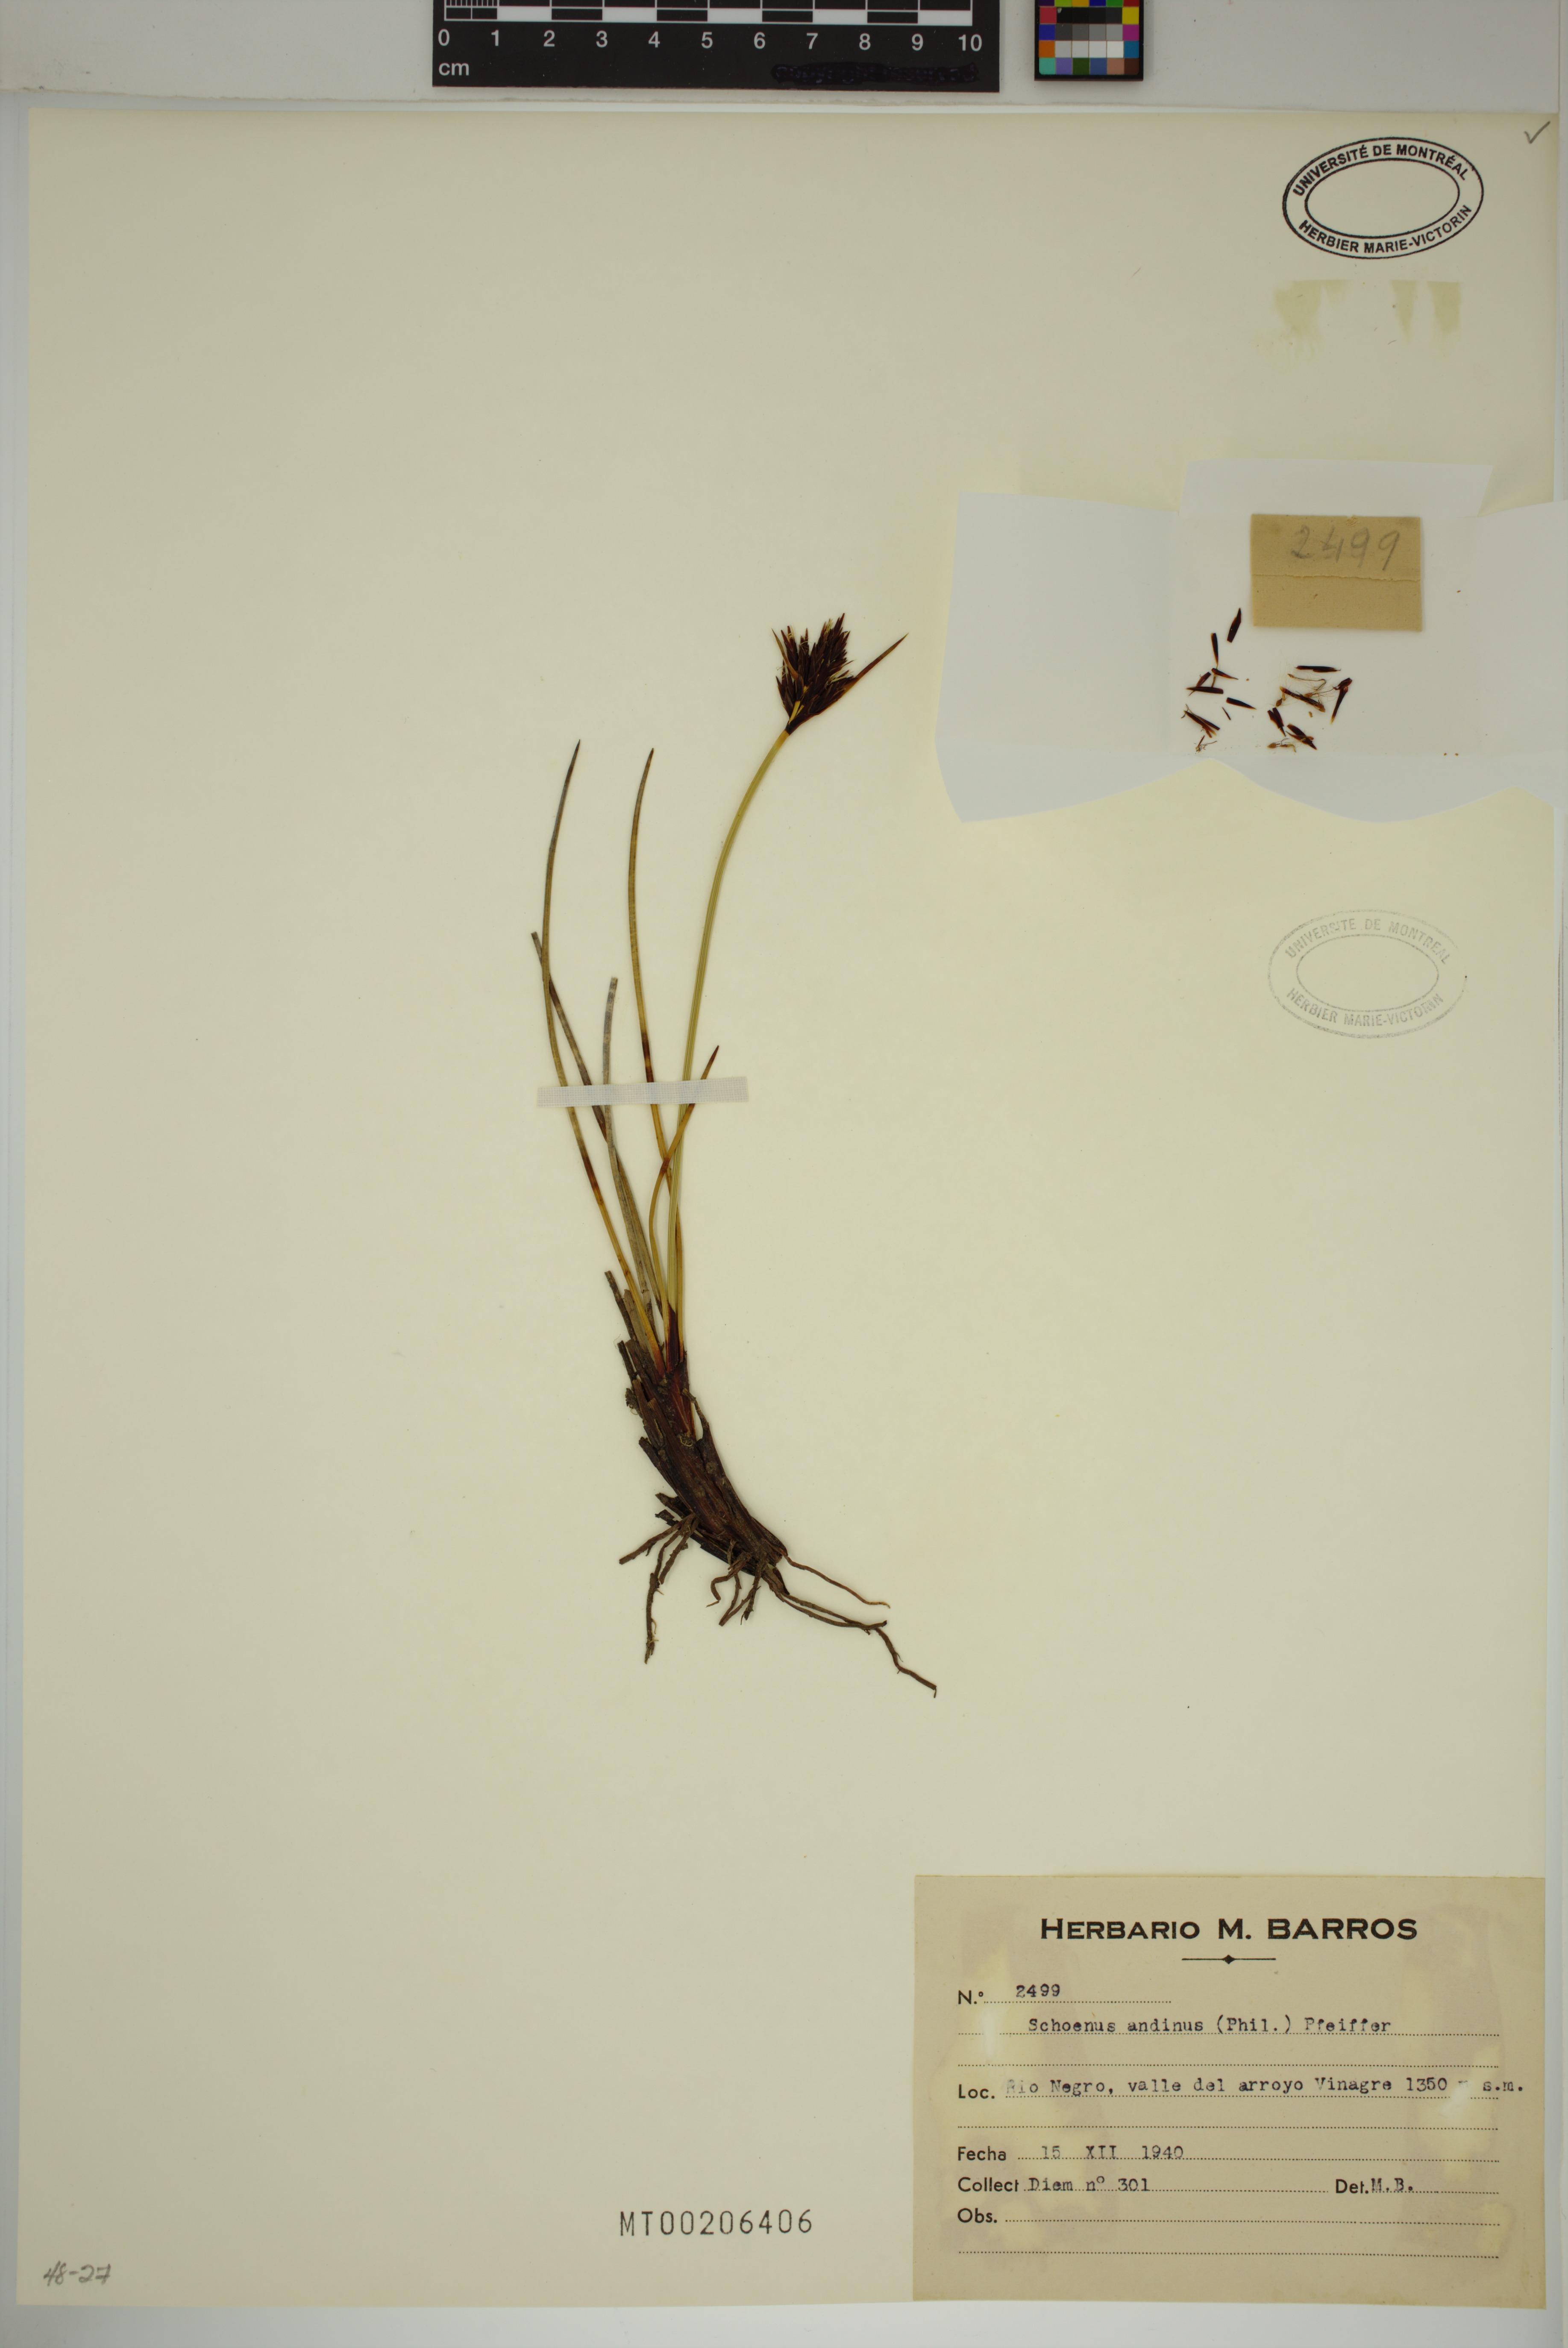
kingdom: Plantae
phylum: Tracheophyta
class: Liliopsida
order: Poales
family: Cyperaceae
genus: Schoenus
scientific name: Schoenus andinus
